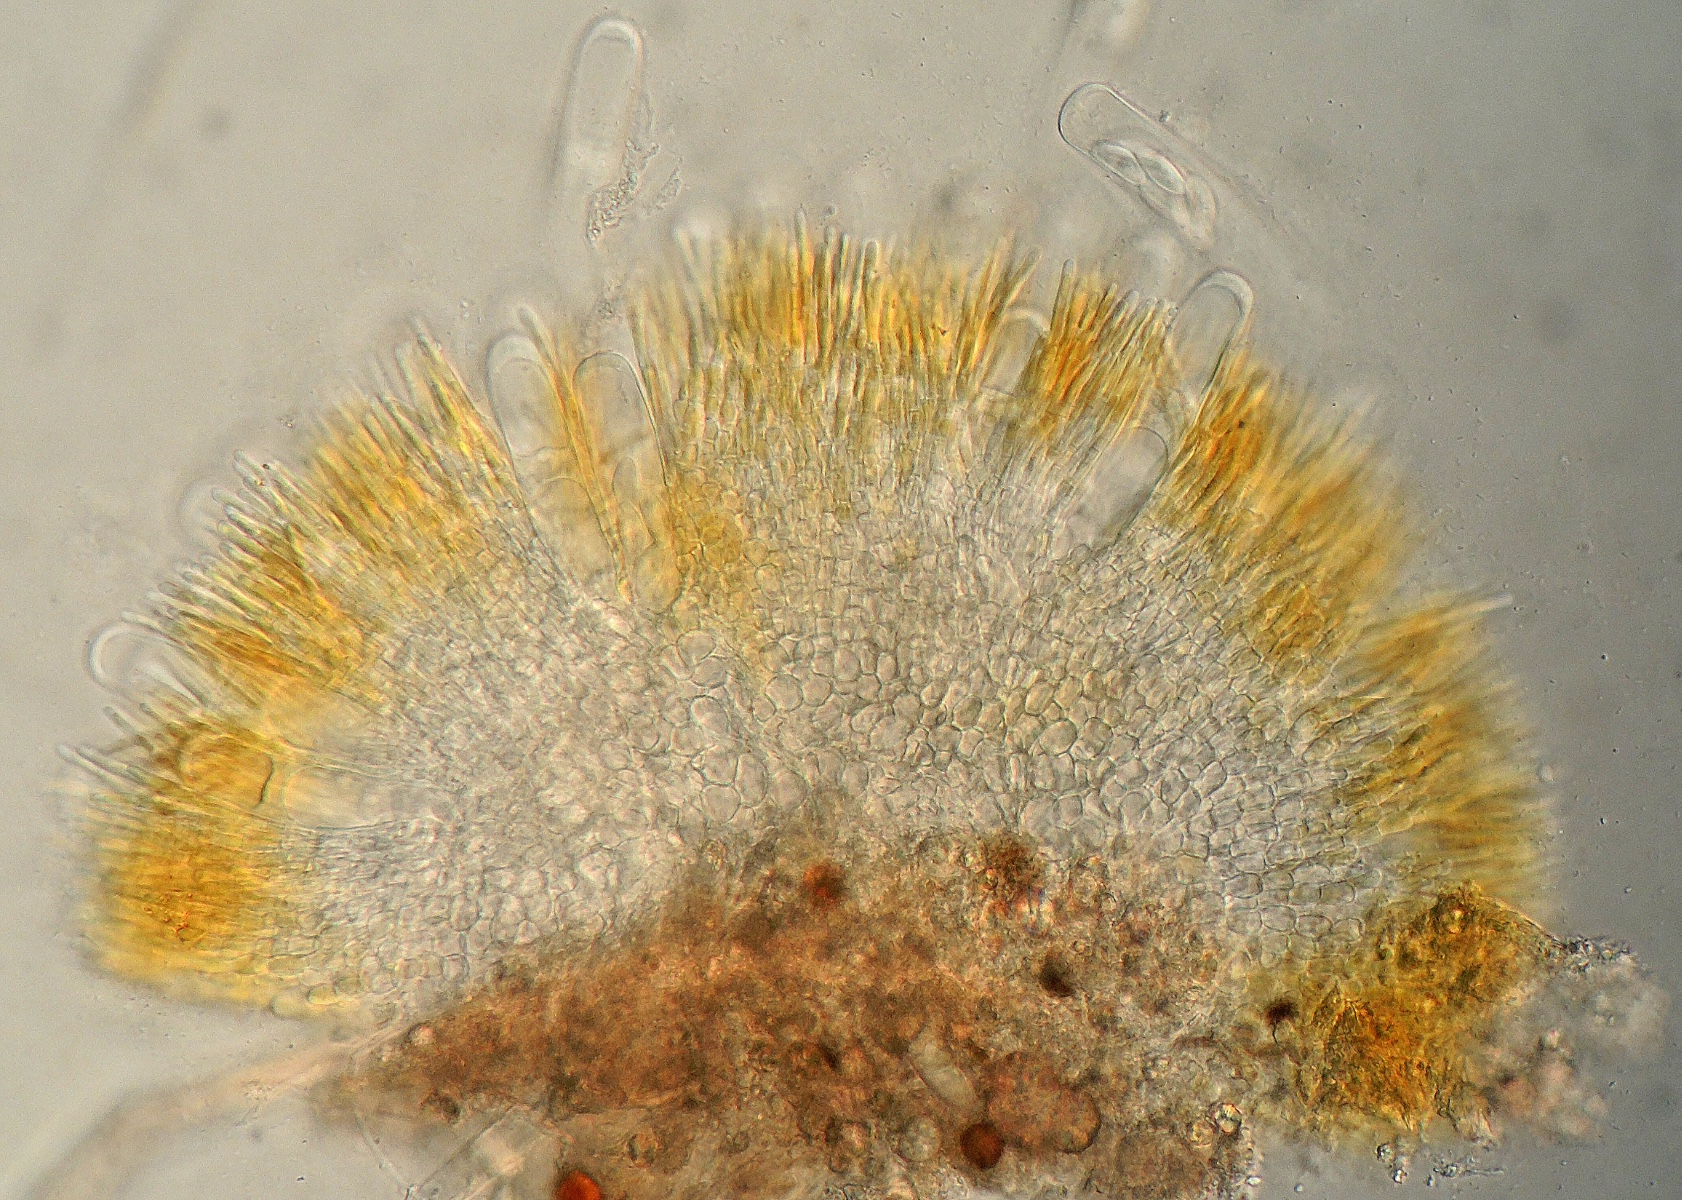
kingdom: Fungi
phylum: Ascomycota
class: Pezizomycetes
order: Pezizales
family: Ascobolaceae
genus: Saccobolus
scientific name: Saccobolus succineus
